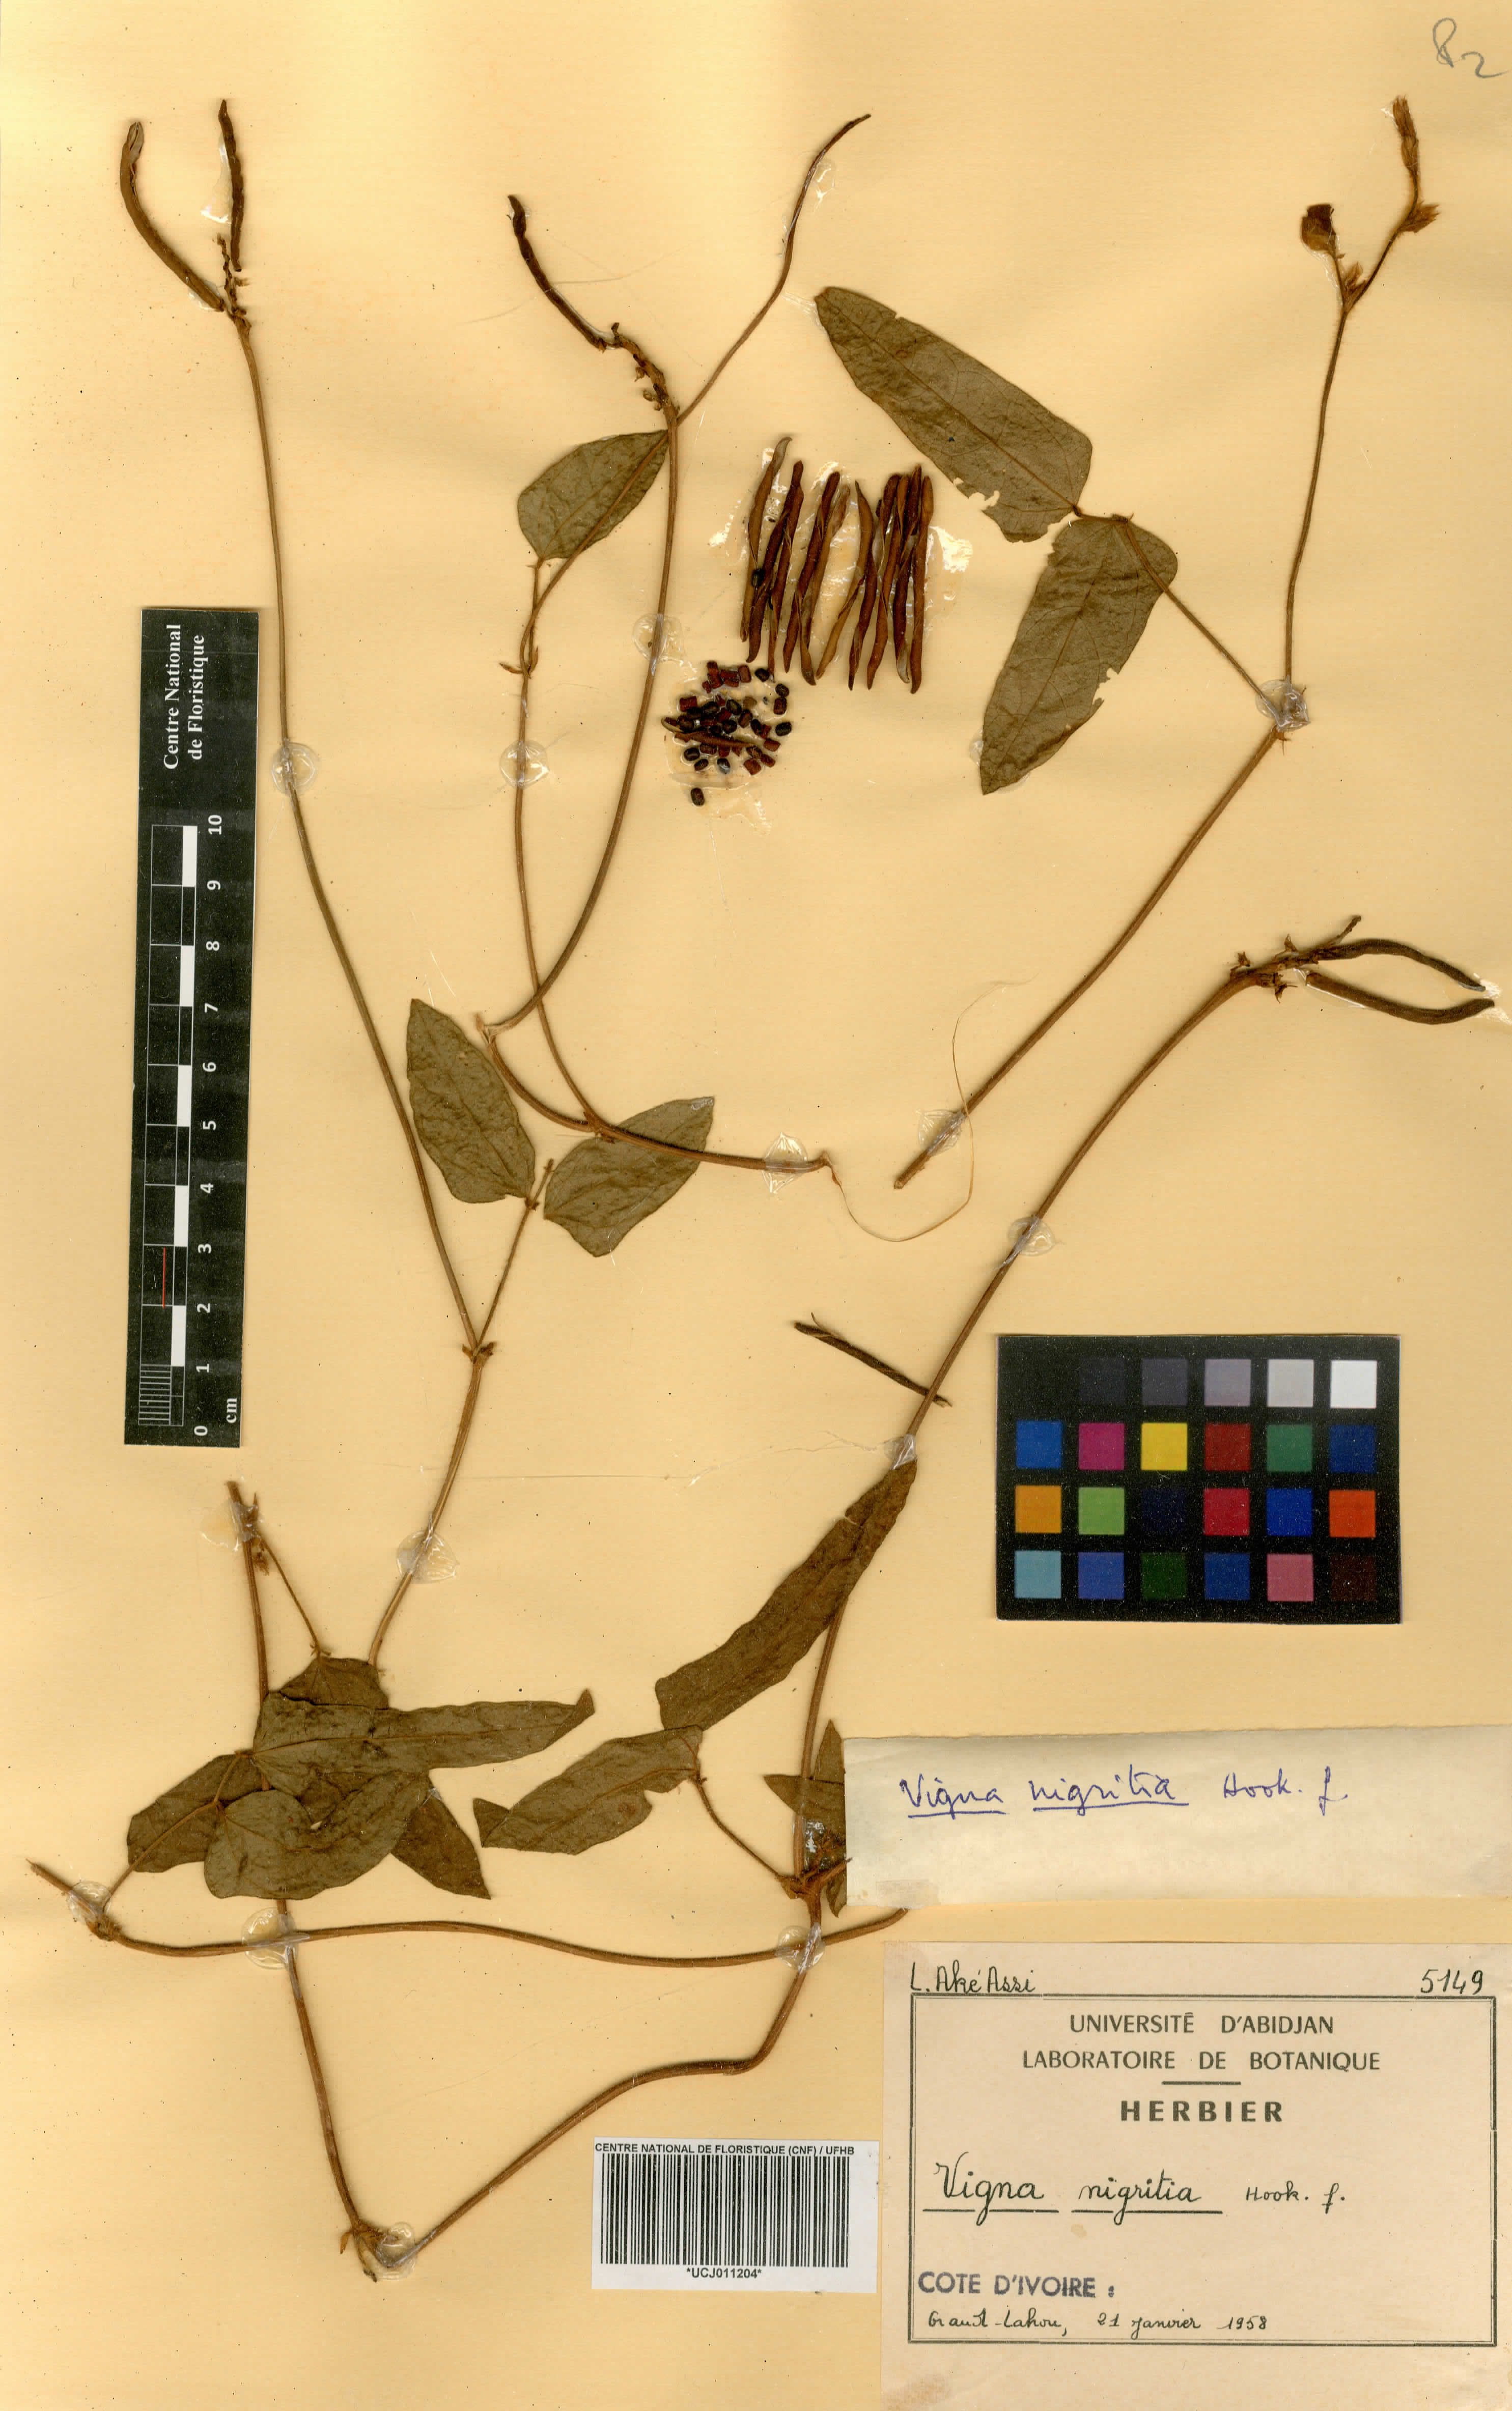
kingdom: Plantae
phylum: Tracheophyta
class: Magnoliopsida
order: Fabales
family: Fabaceae
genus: Vigna
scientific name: Vigna nigritia
